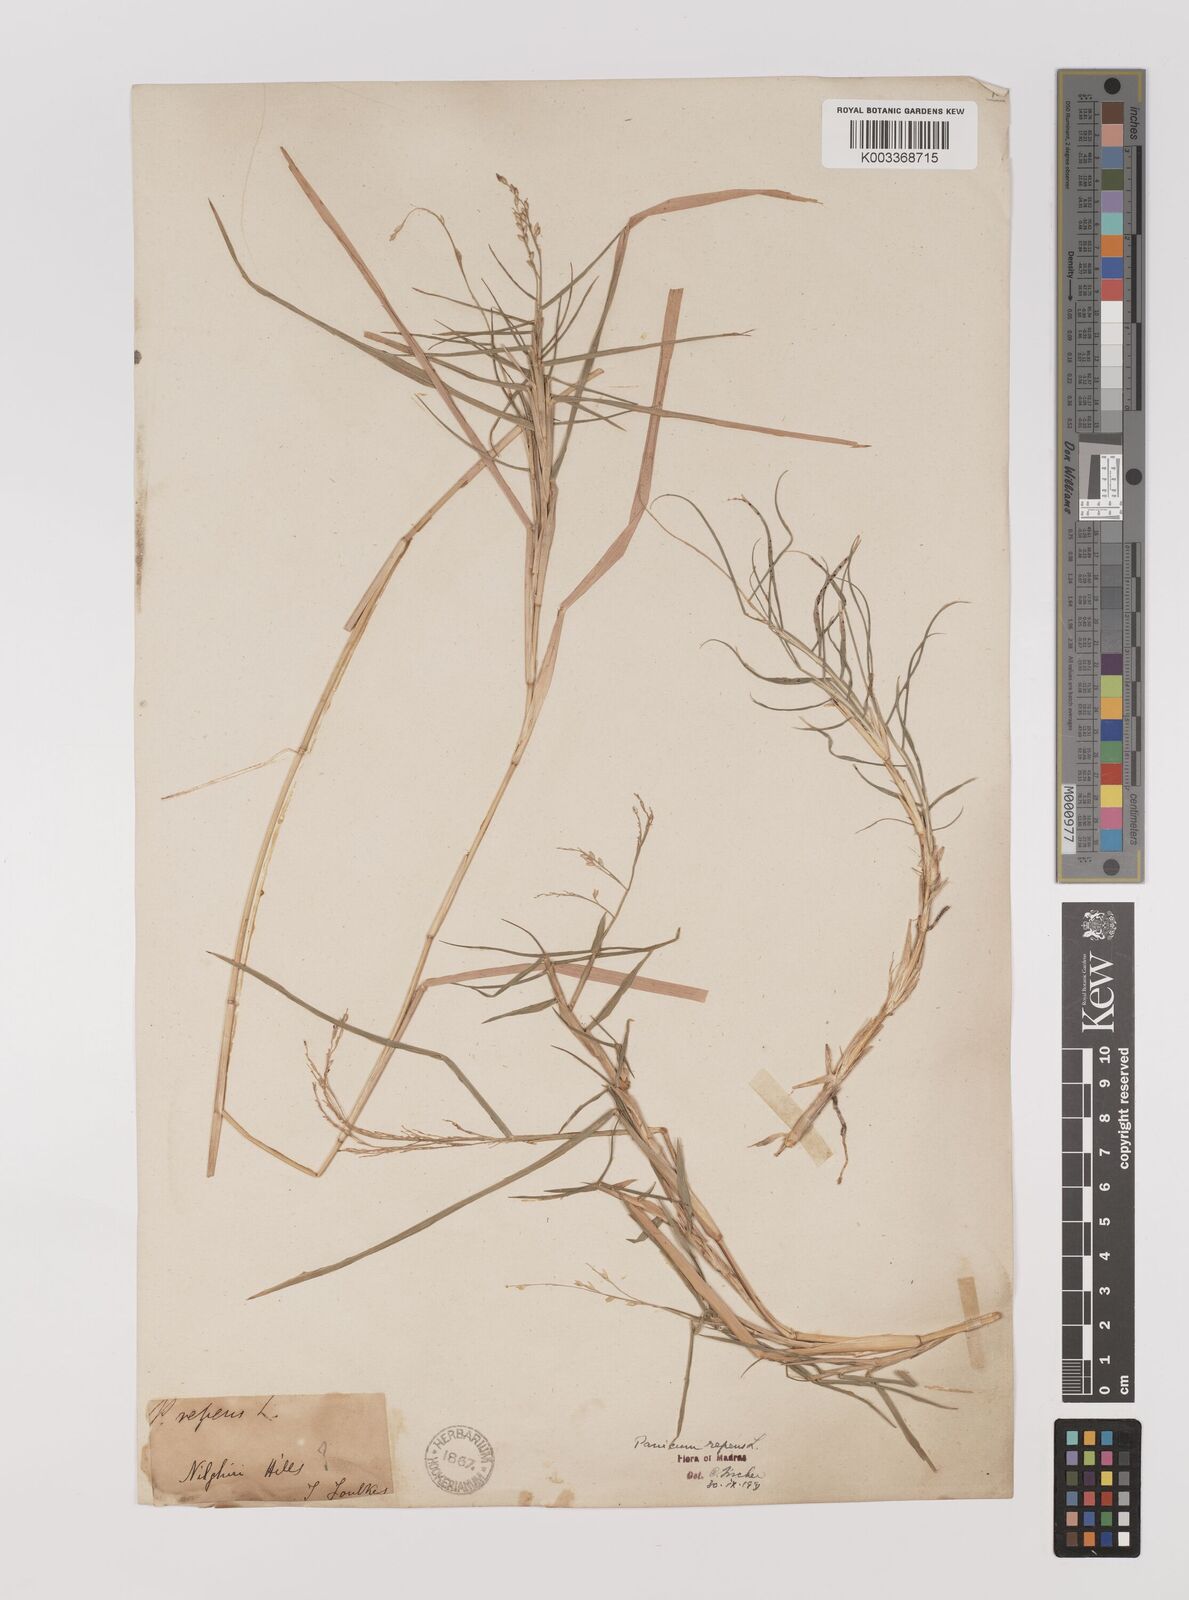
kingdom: Plantae
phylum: Tracheophyta
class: Liliopsida
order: Poales
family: Poaceae
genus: Panicum
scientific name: Panicum repens
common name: Torpedo grass
